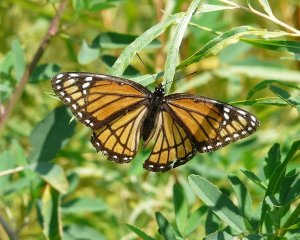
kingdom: Animalia
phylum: Arthropoda
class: Insecta
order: Lepidoptera
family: Nymphalidae
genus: Limenitis
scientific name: Limenitis archippus
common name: Viceroy
